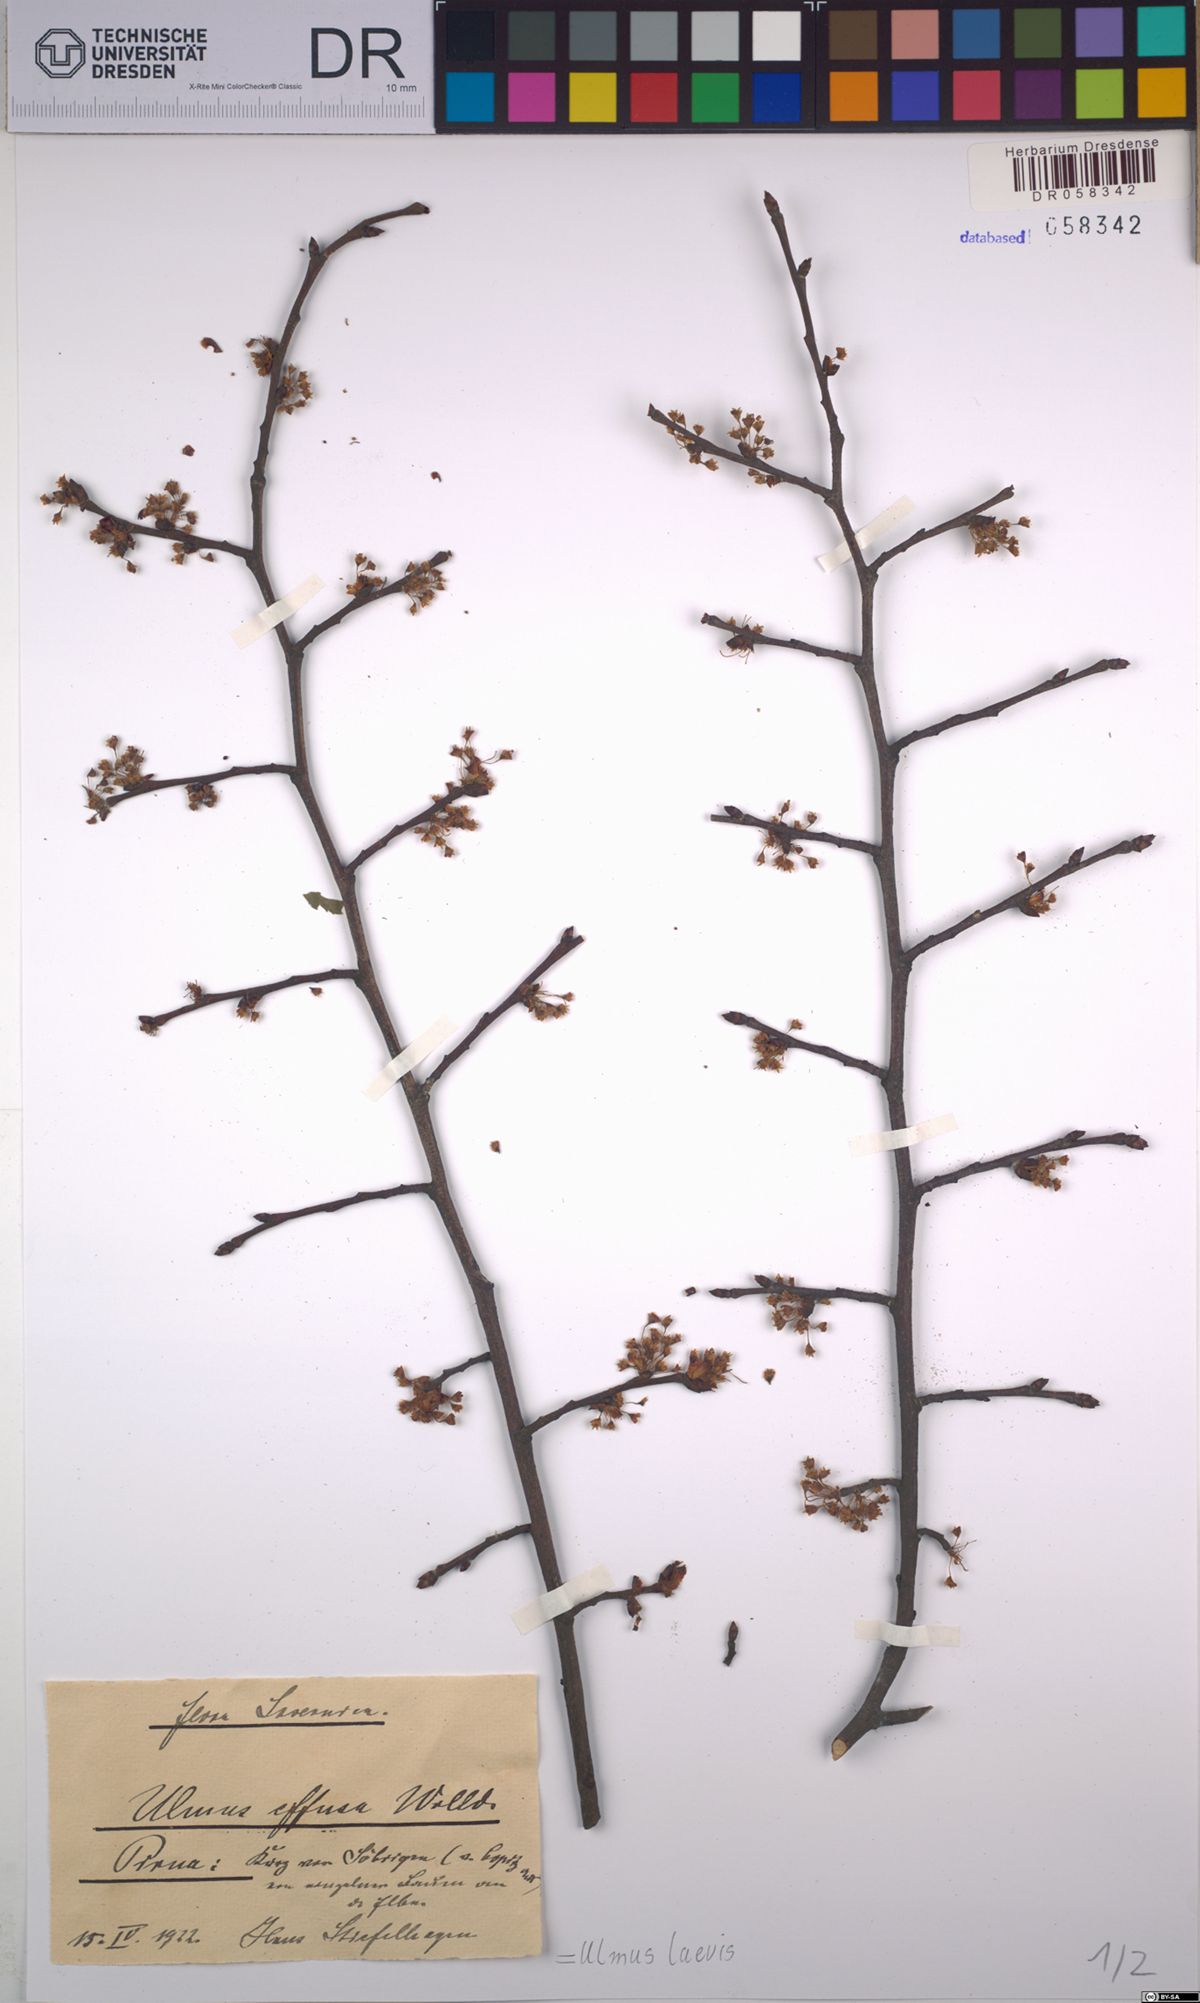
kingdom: Plantae
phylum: Tracheophyta
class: Magnoliopsida
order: Rosales
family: Ulmaceae
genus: Ulmus
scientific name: Ulmus laevis
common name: European white-elm
